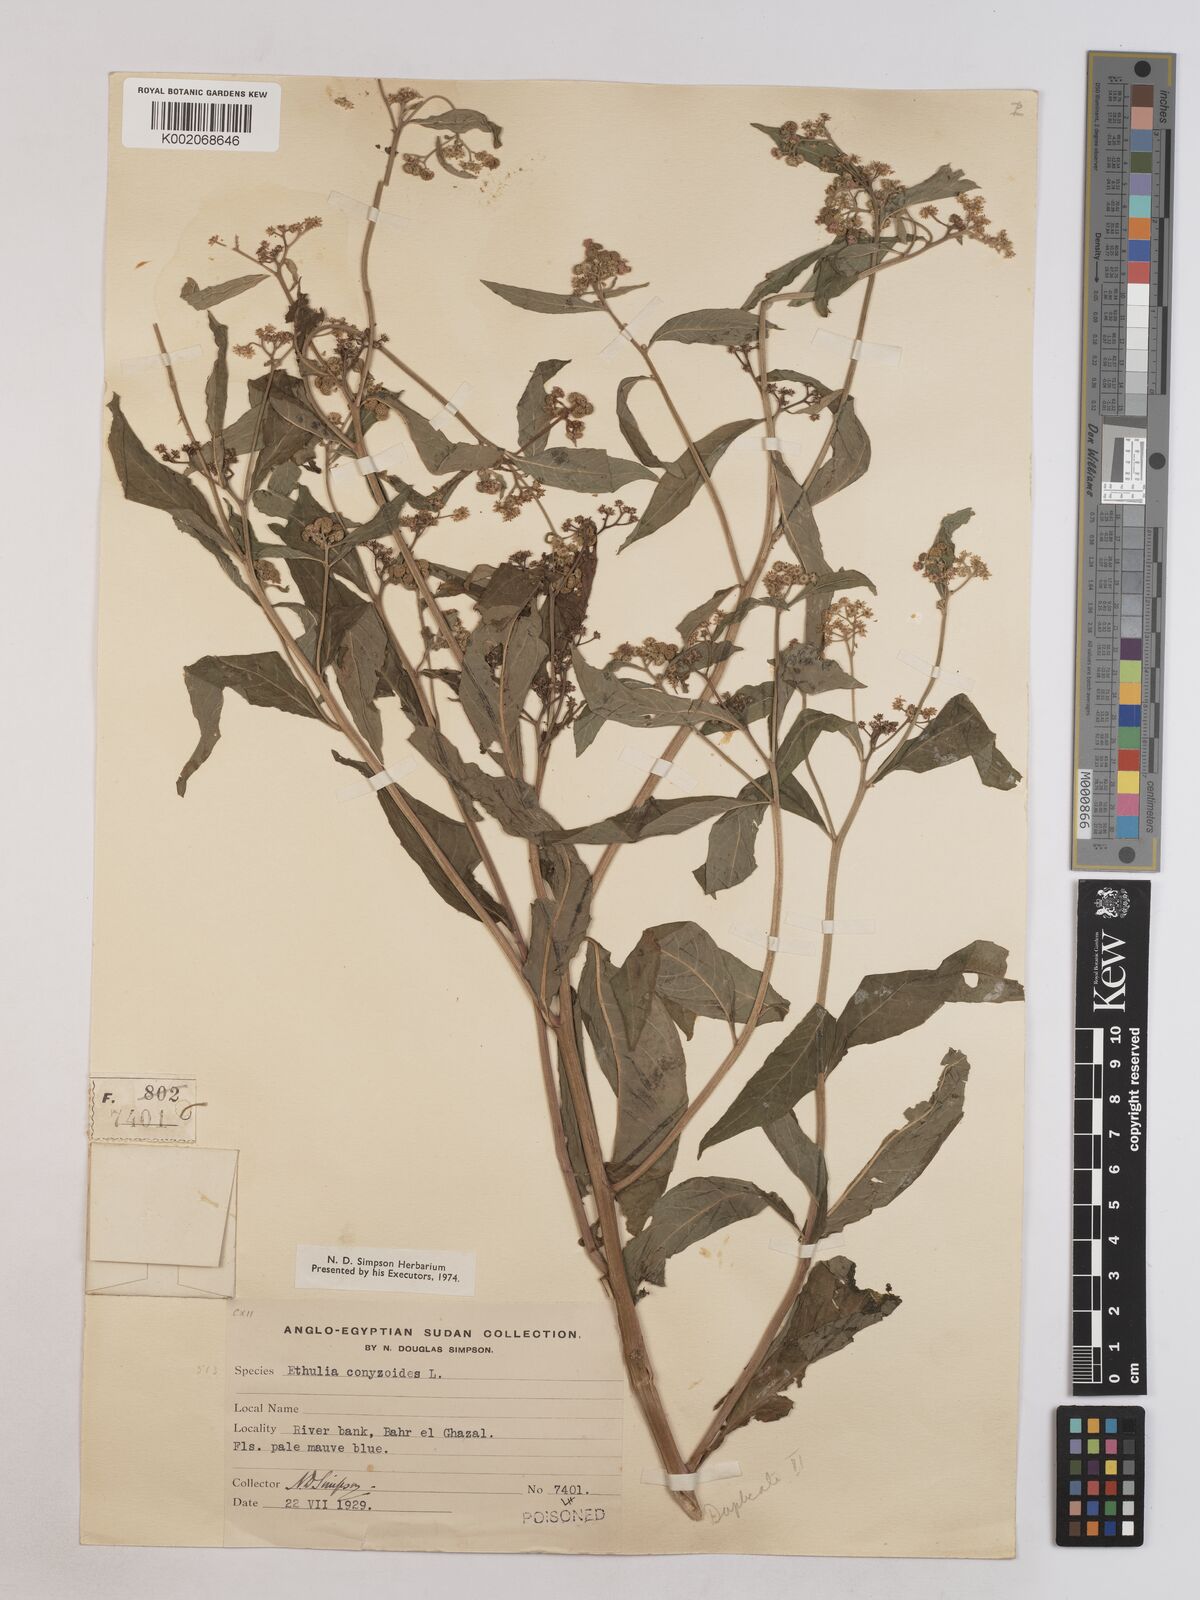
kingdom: Plantae
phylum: Tracheophyta
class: Magnoliopsida
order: Asterales
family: Asteraceae
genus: Ethulia
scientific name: Ethulia conyzoides
